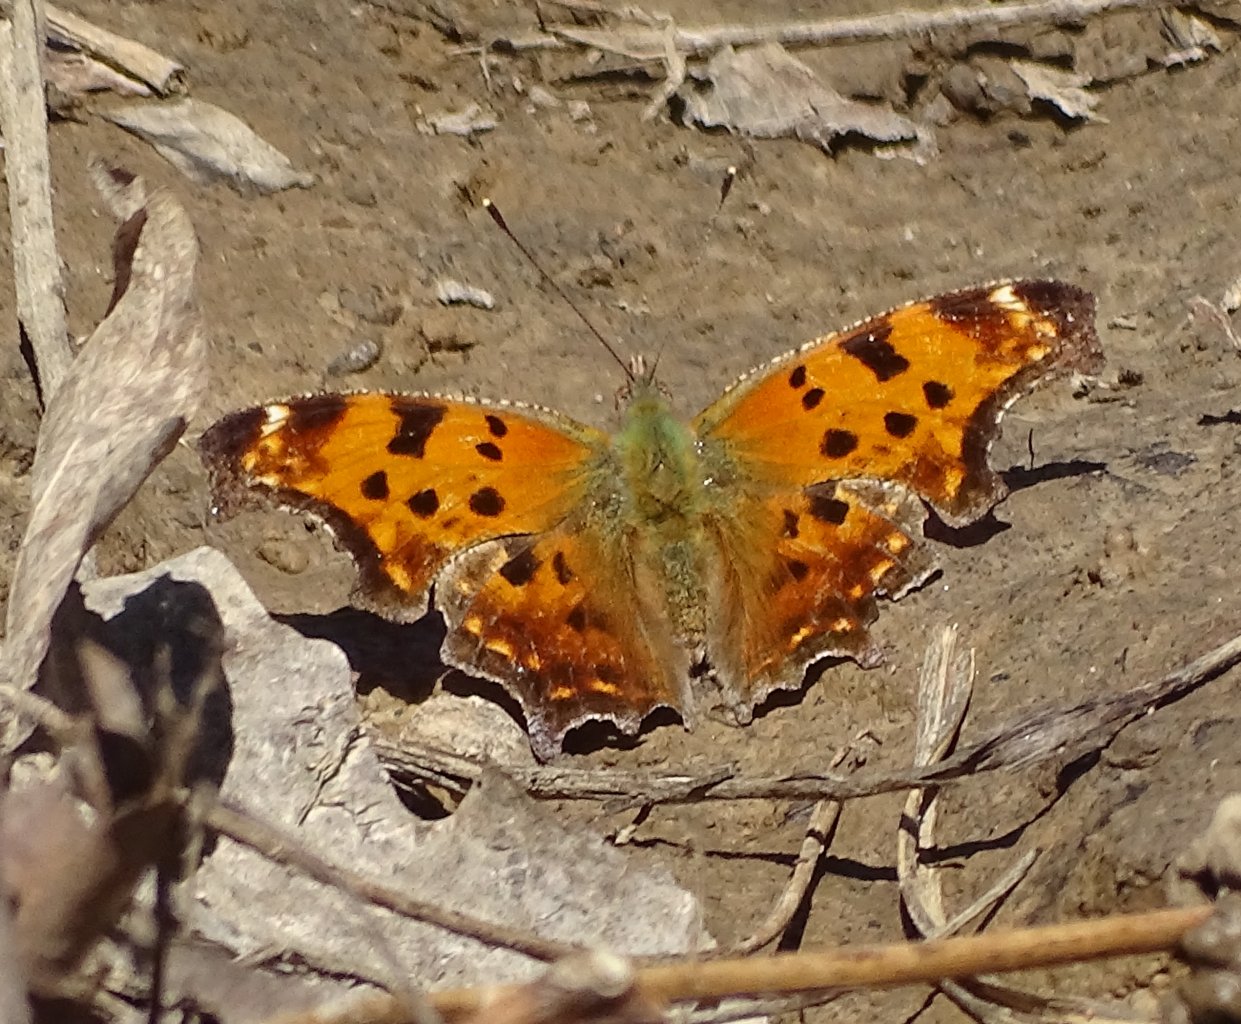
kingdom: Animalia
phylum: Arthropoda
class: Insecta
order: Lepidoptera
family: Nymphalidae
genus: Polygonia
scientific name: Polygonia comma
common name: Eastern Comma
